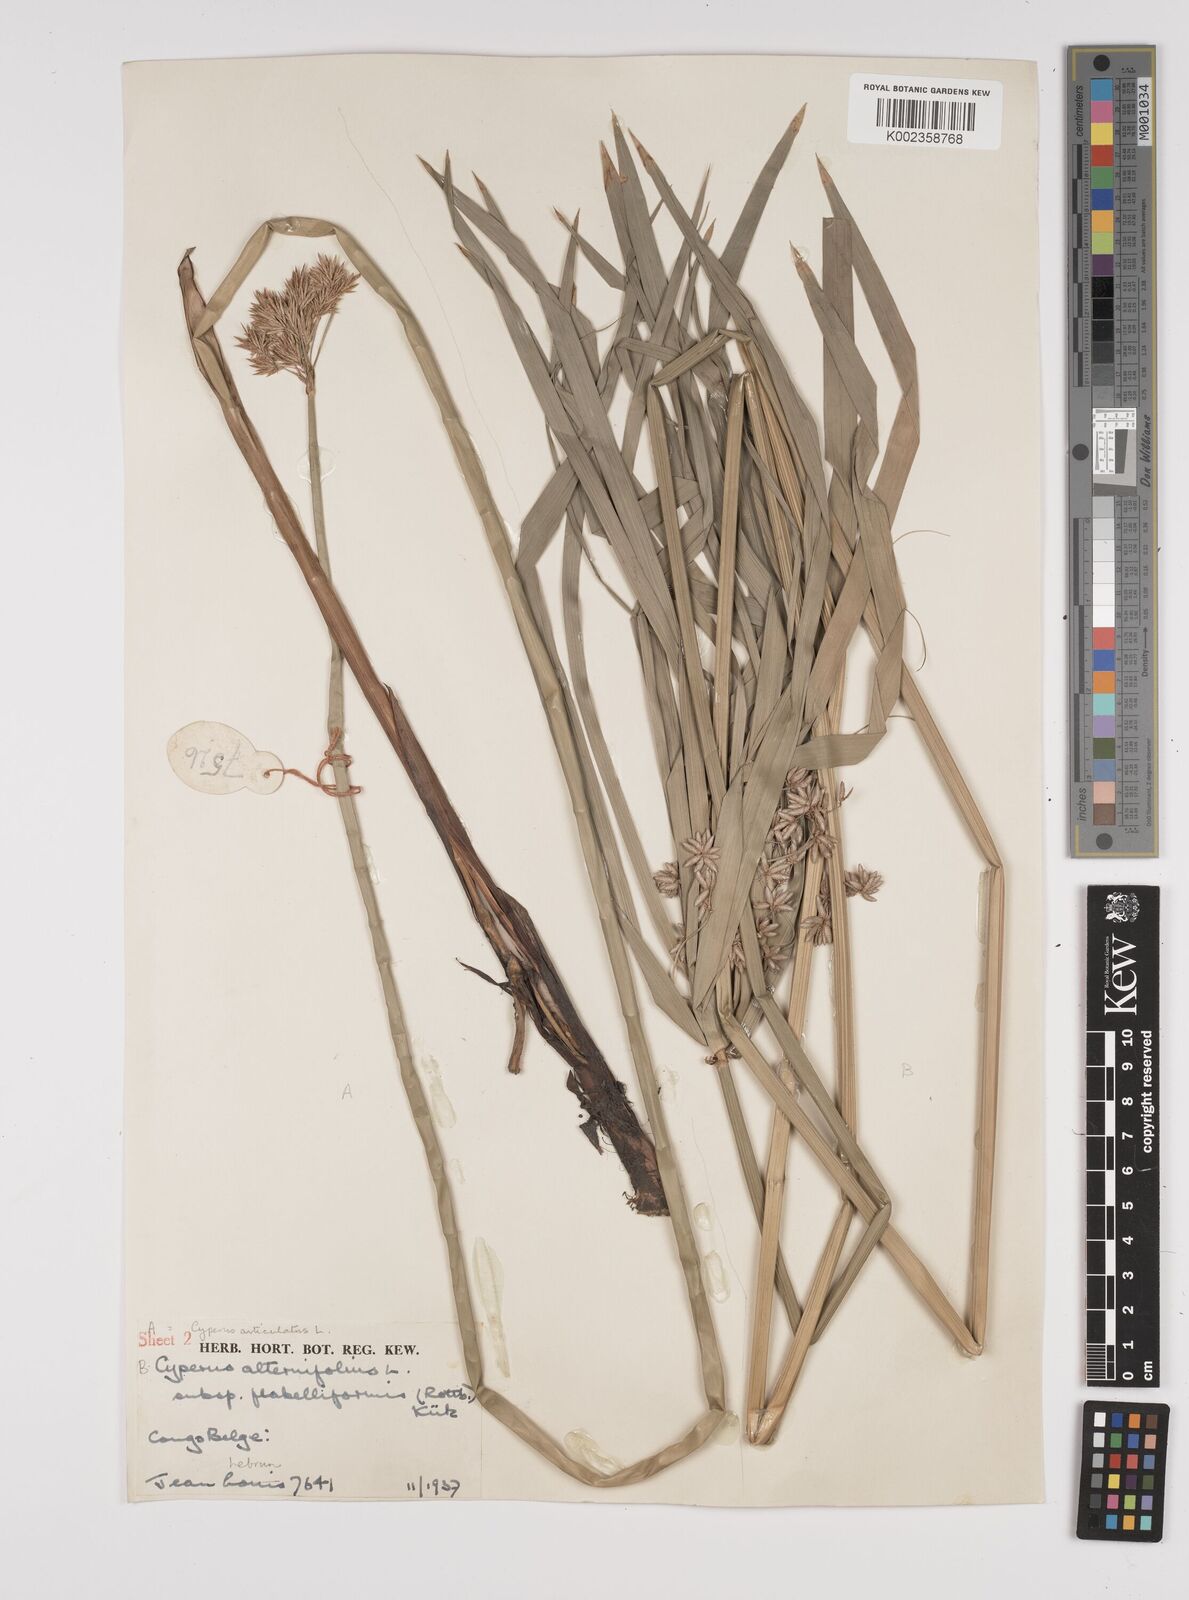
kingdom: Plantae
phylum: Tracheophyta
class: Liliopsida
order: Poales
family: Cyperaceae
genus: Cyperus
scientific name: Cyperus alternifolius
